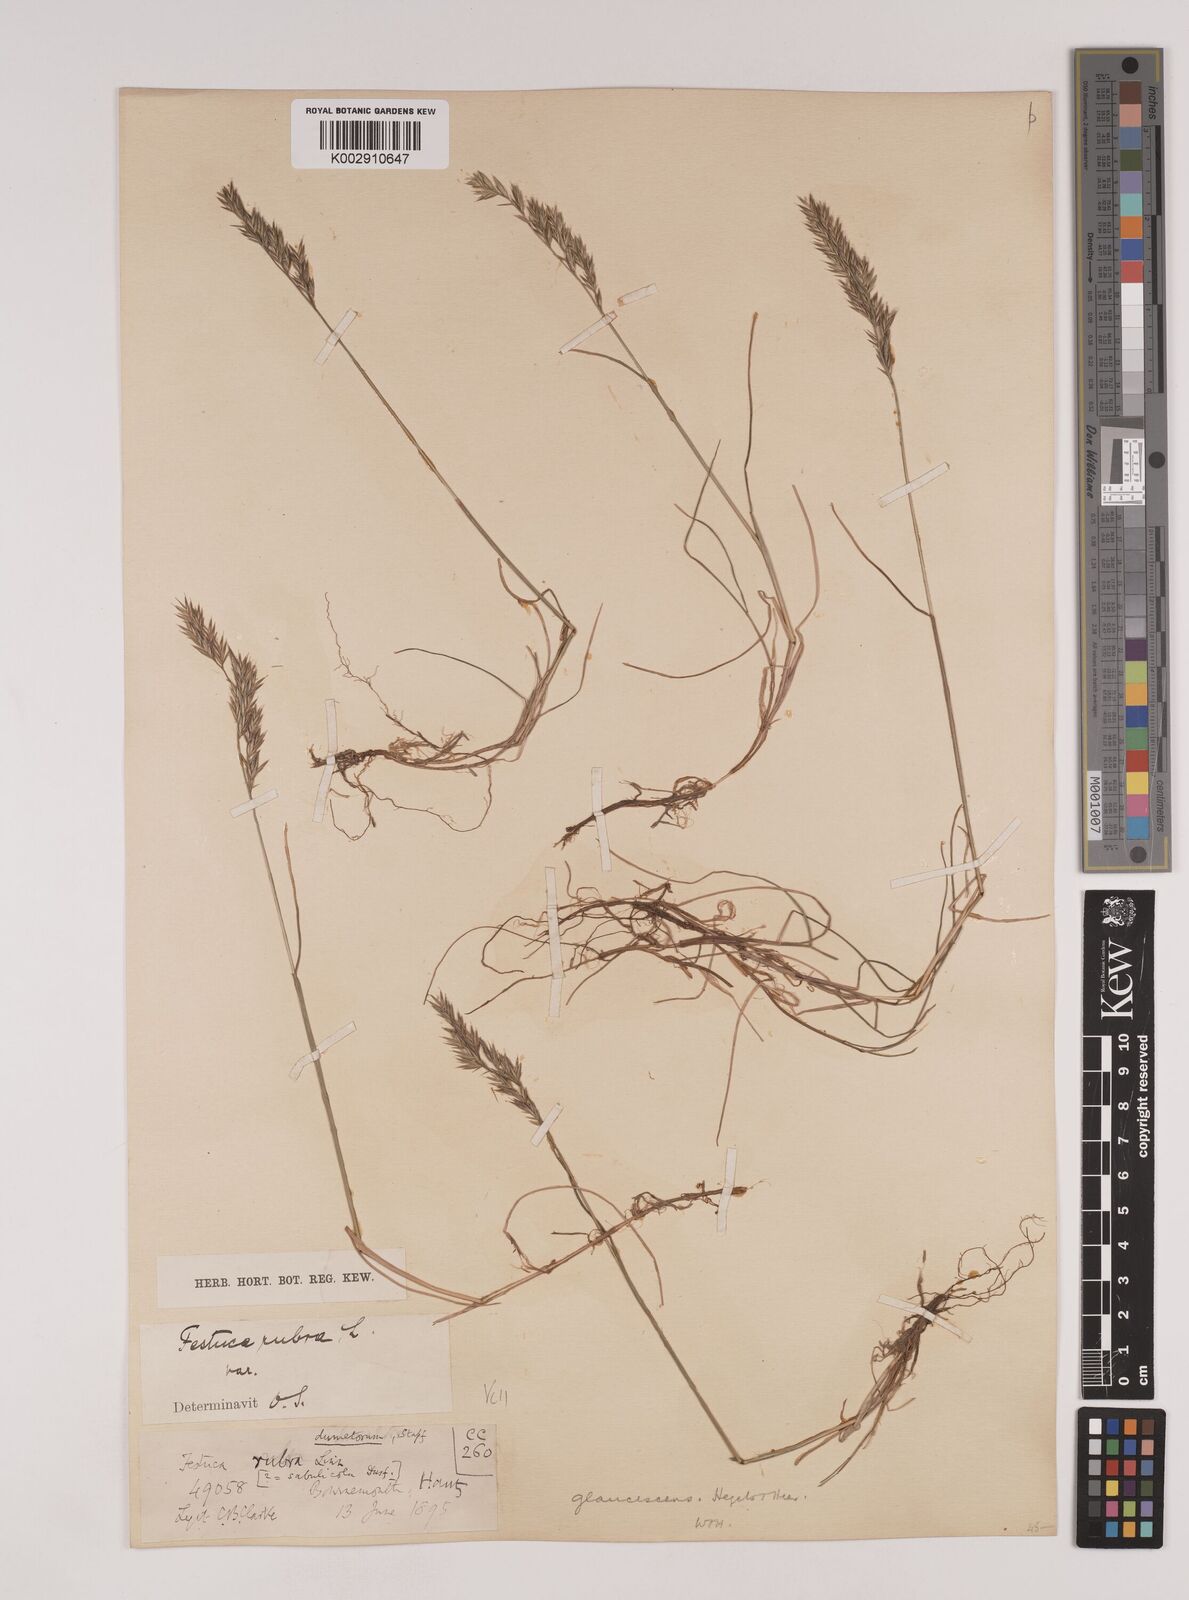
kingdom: Plantae
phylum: Tracheophyta
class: Liliopsida
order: Poales
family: Poaceae
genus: Festuca
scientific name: Festuca rubra
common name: Red fescue
